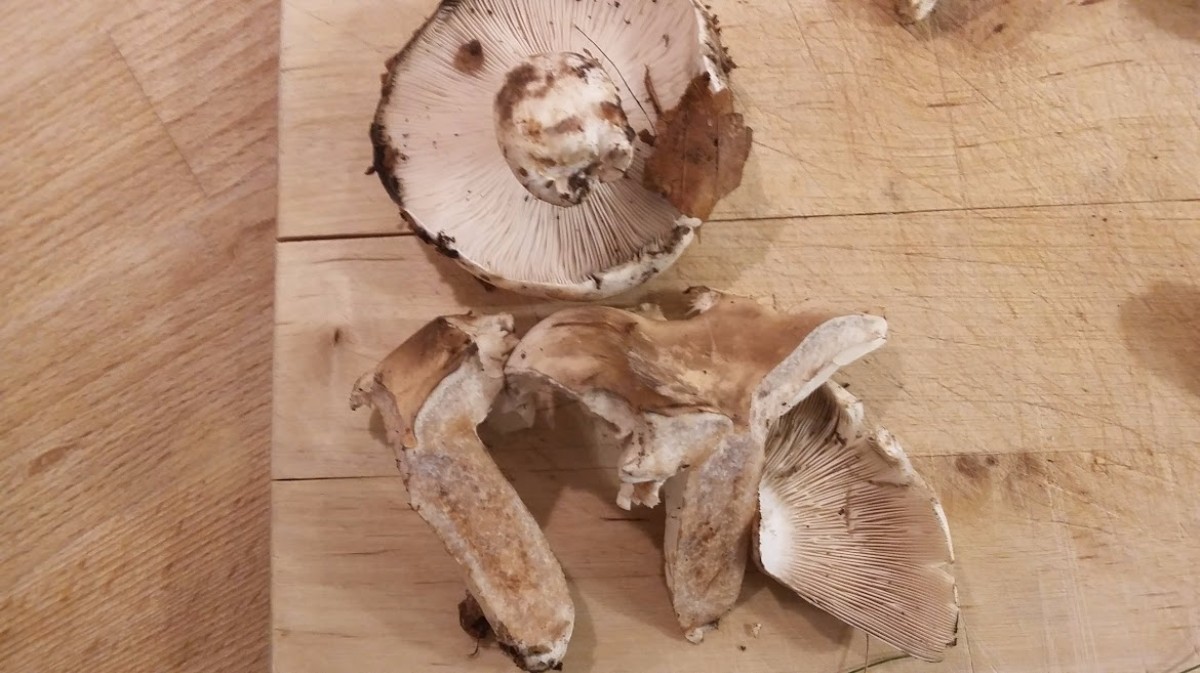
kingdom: Fungi
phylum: Basidiomycota
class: Agaricomycetes
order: Russulales
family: Russulaceae
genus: Russula
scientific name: Russula densifolia
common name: tætbladet skørhat
